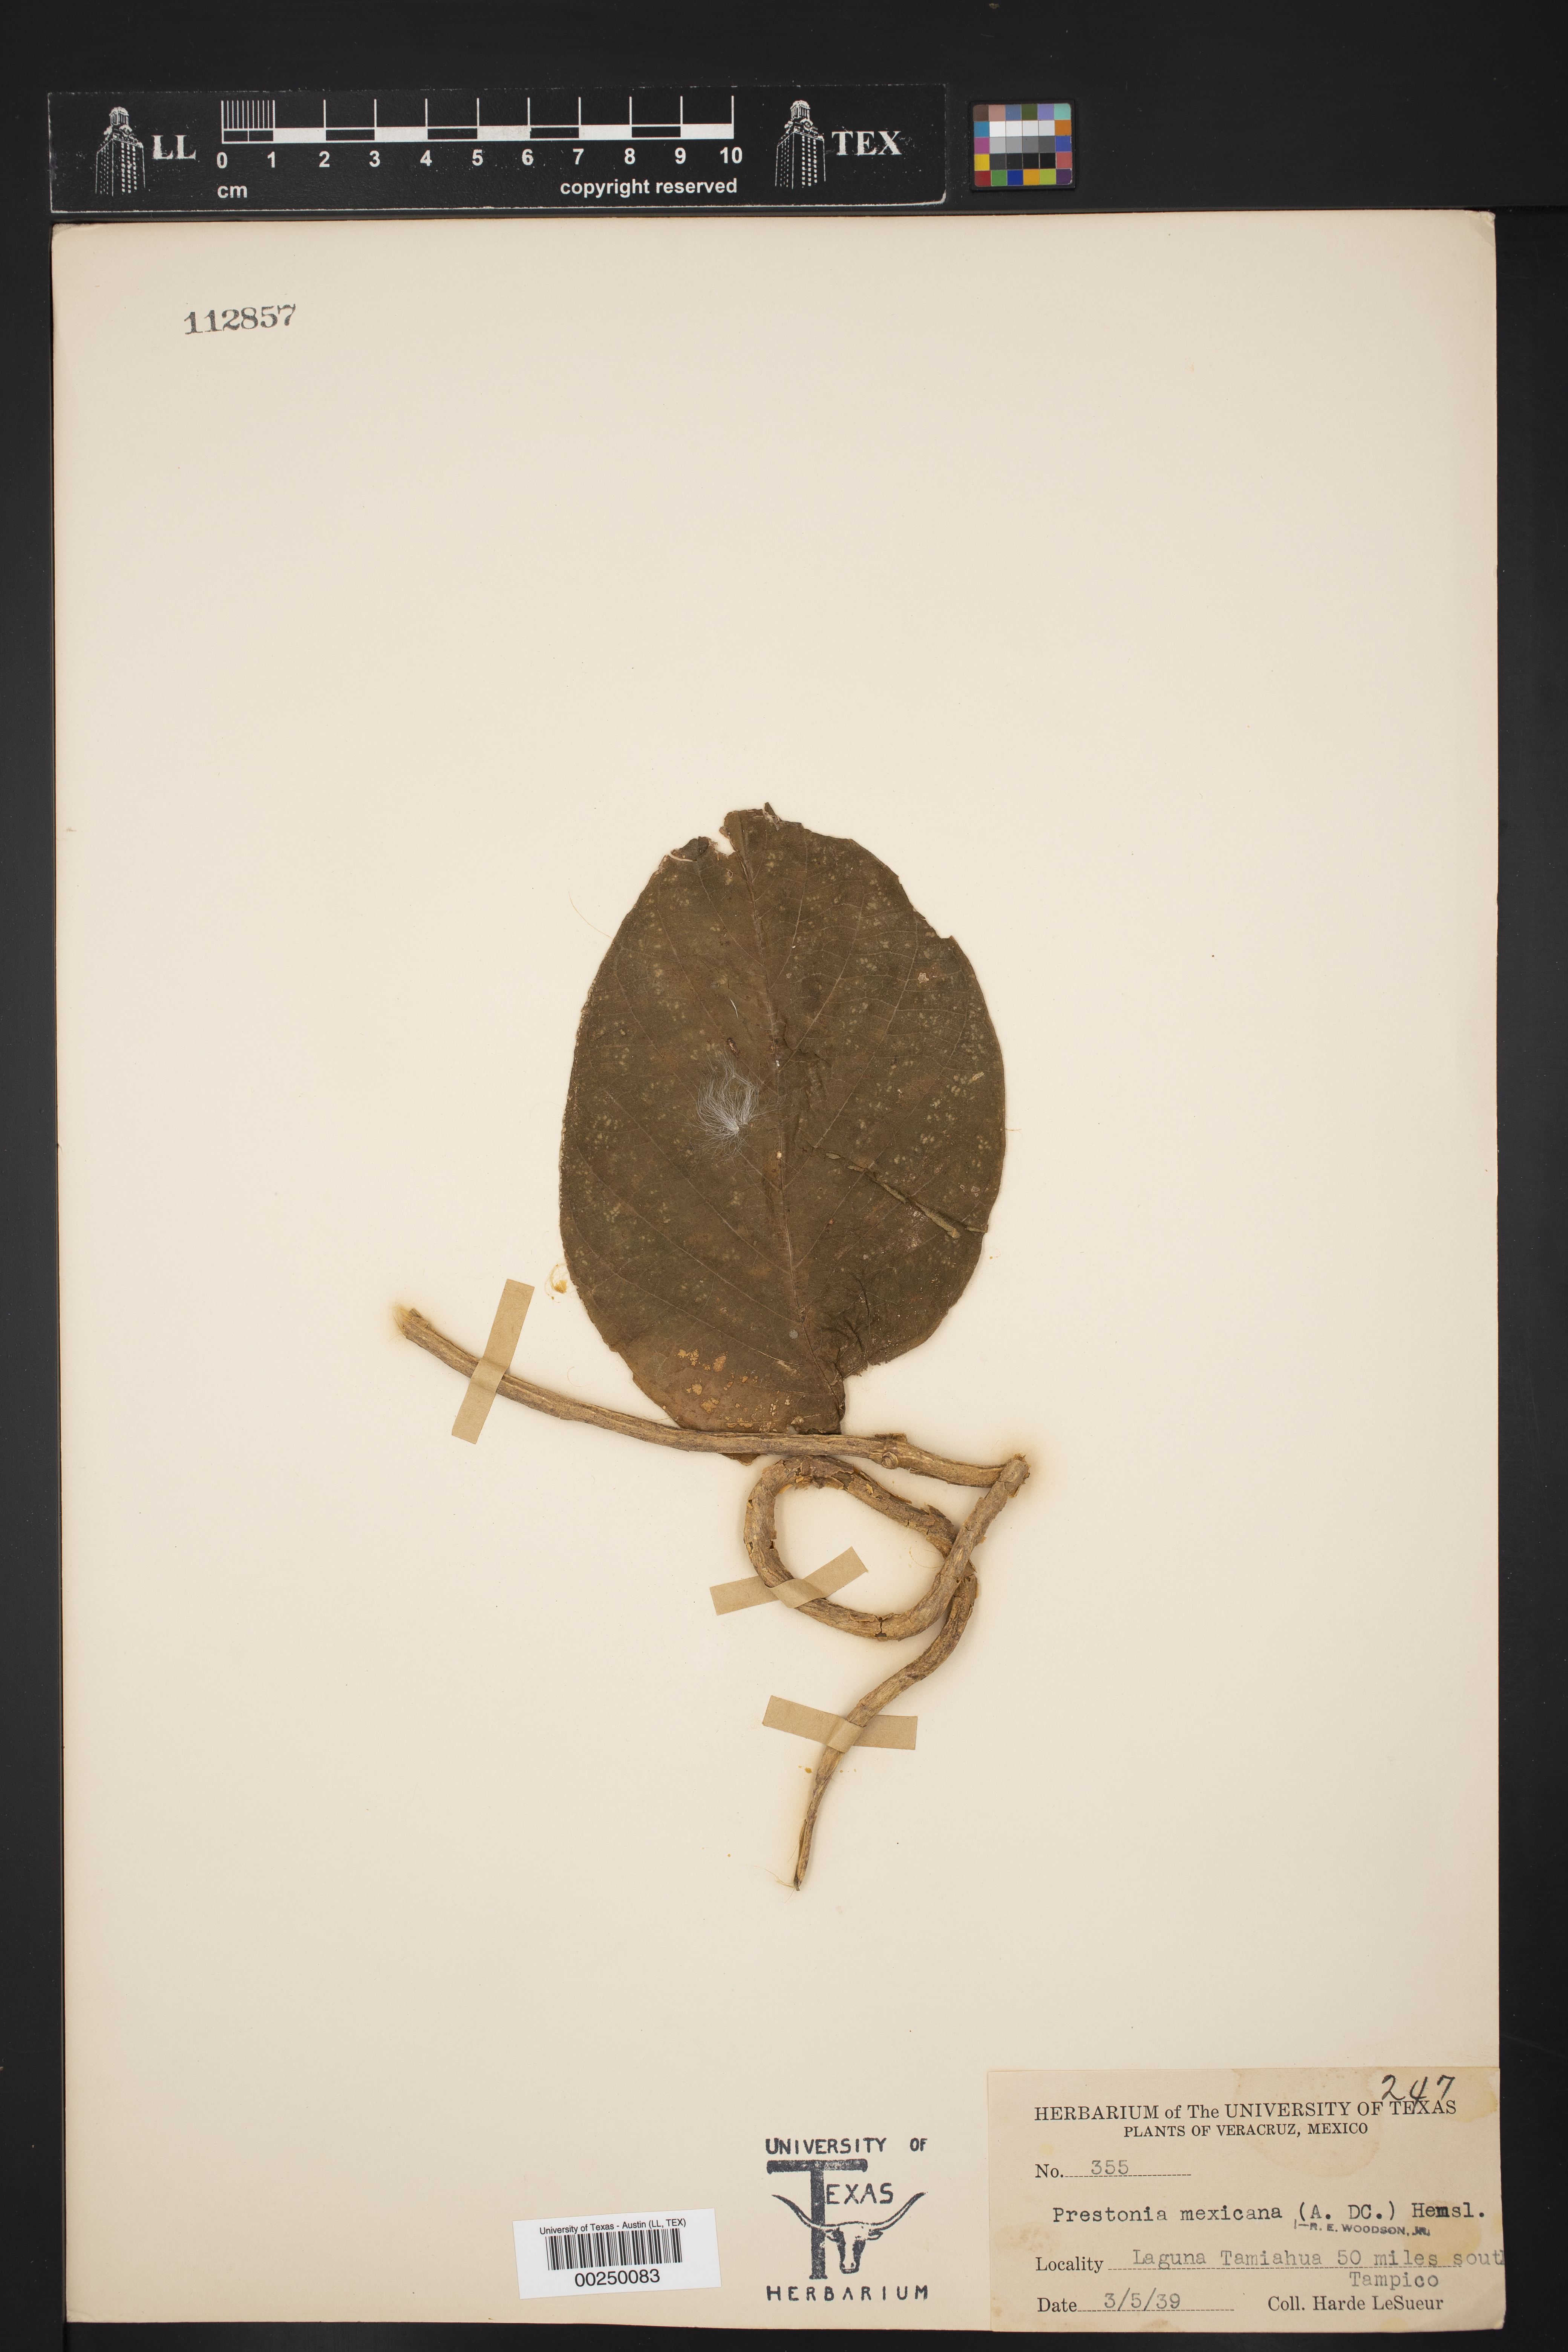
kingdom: Plantae
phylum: Tracheophyta
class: Magnoliopsida
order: Gentianales
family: Apocynaceae
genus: Prestonia
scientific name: Prestonia mexicana
